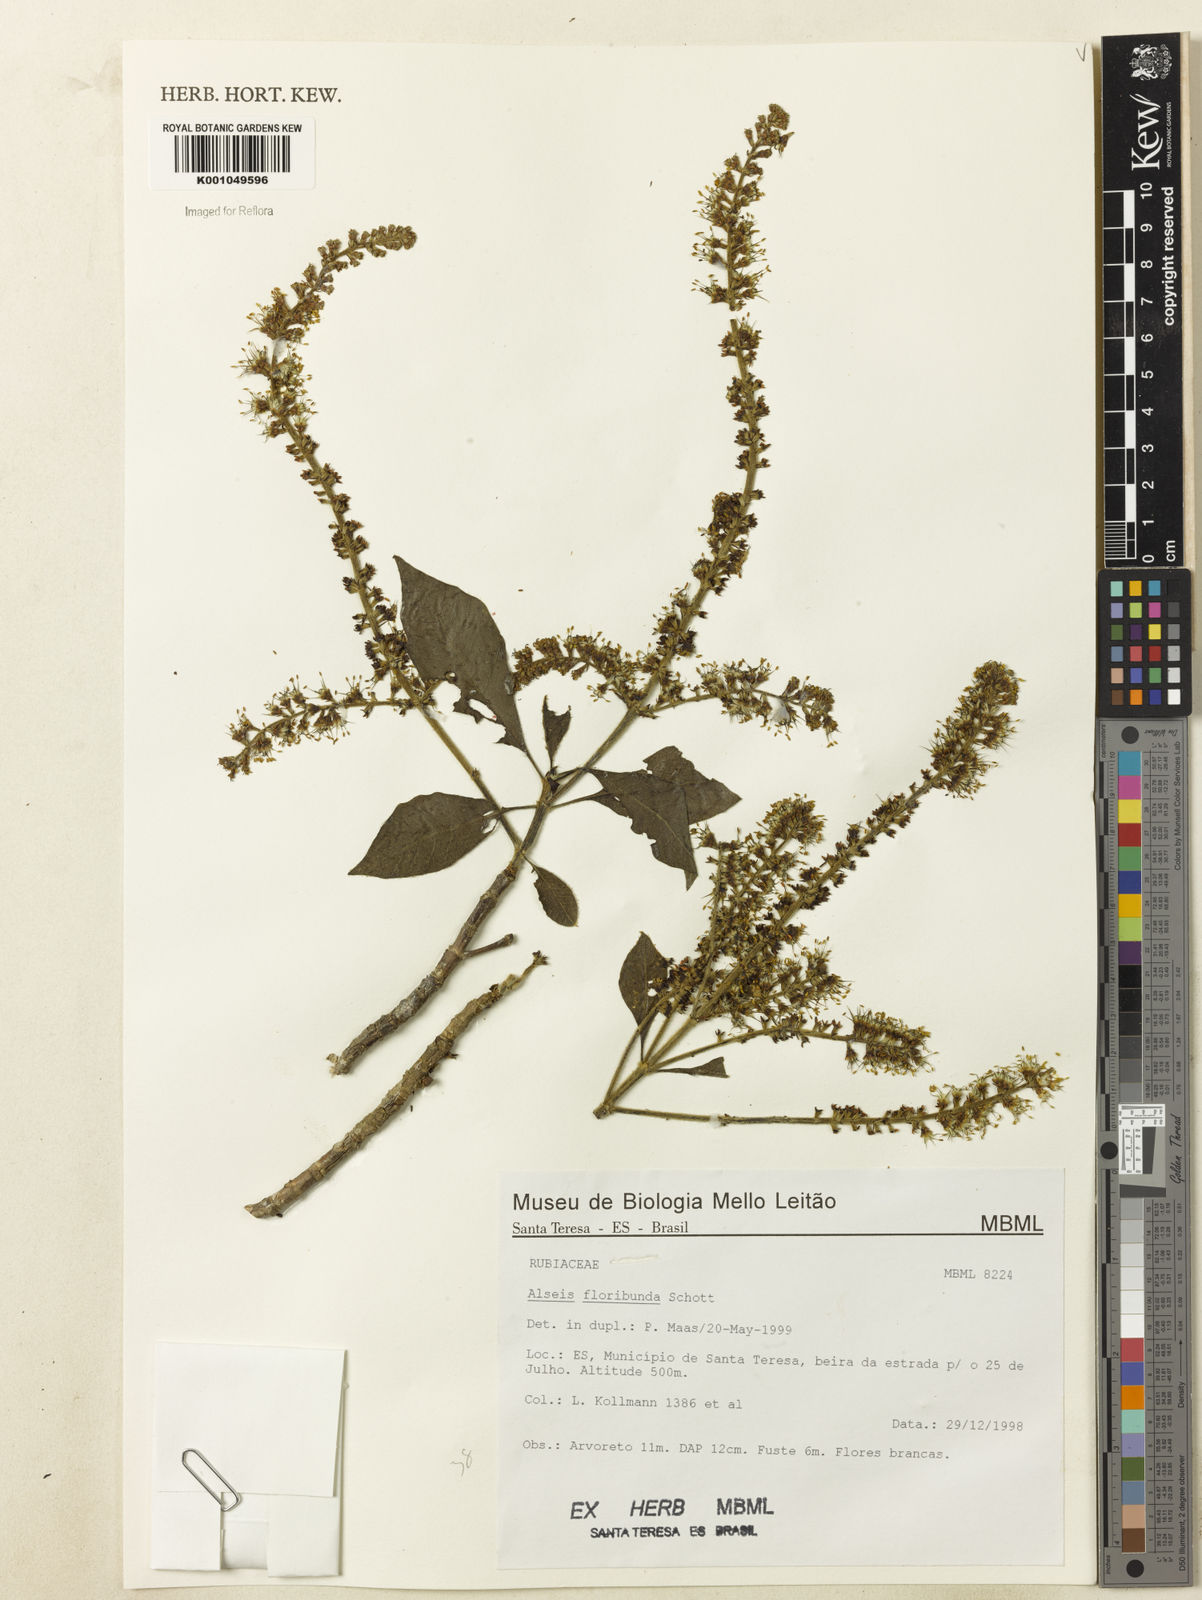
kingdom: Plantae
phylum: Tracheophyta
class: Magnoliopsida
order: Gentianales
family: Rubiaceae
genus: Alseis
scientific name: Alseis floribunda
